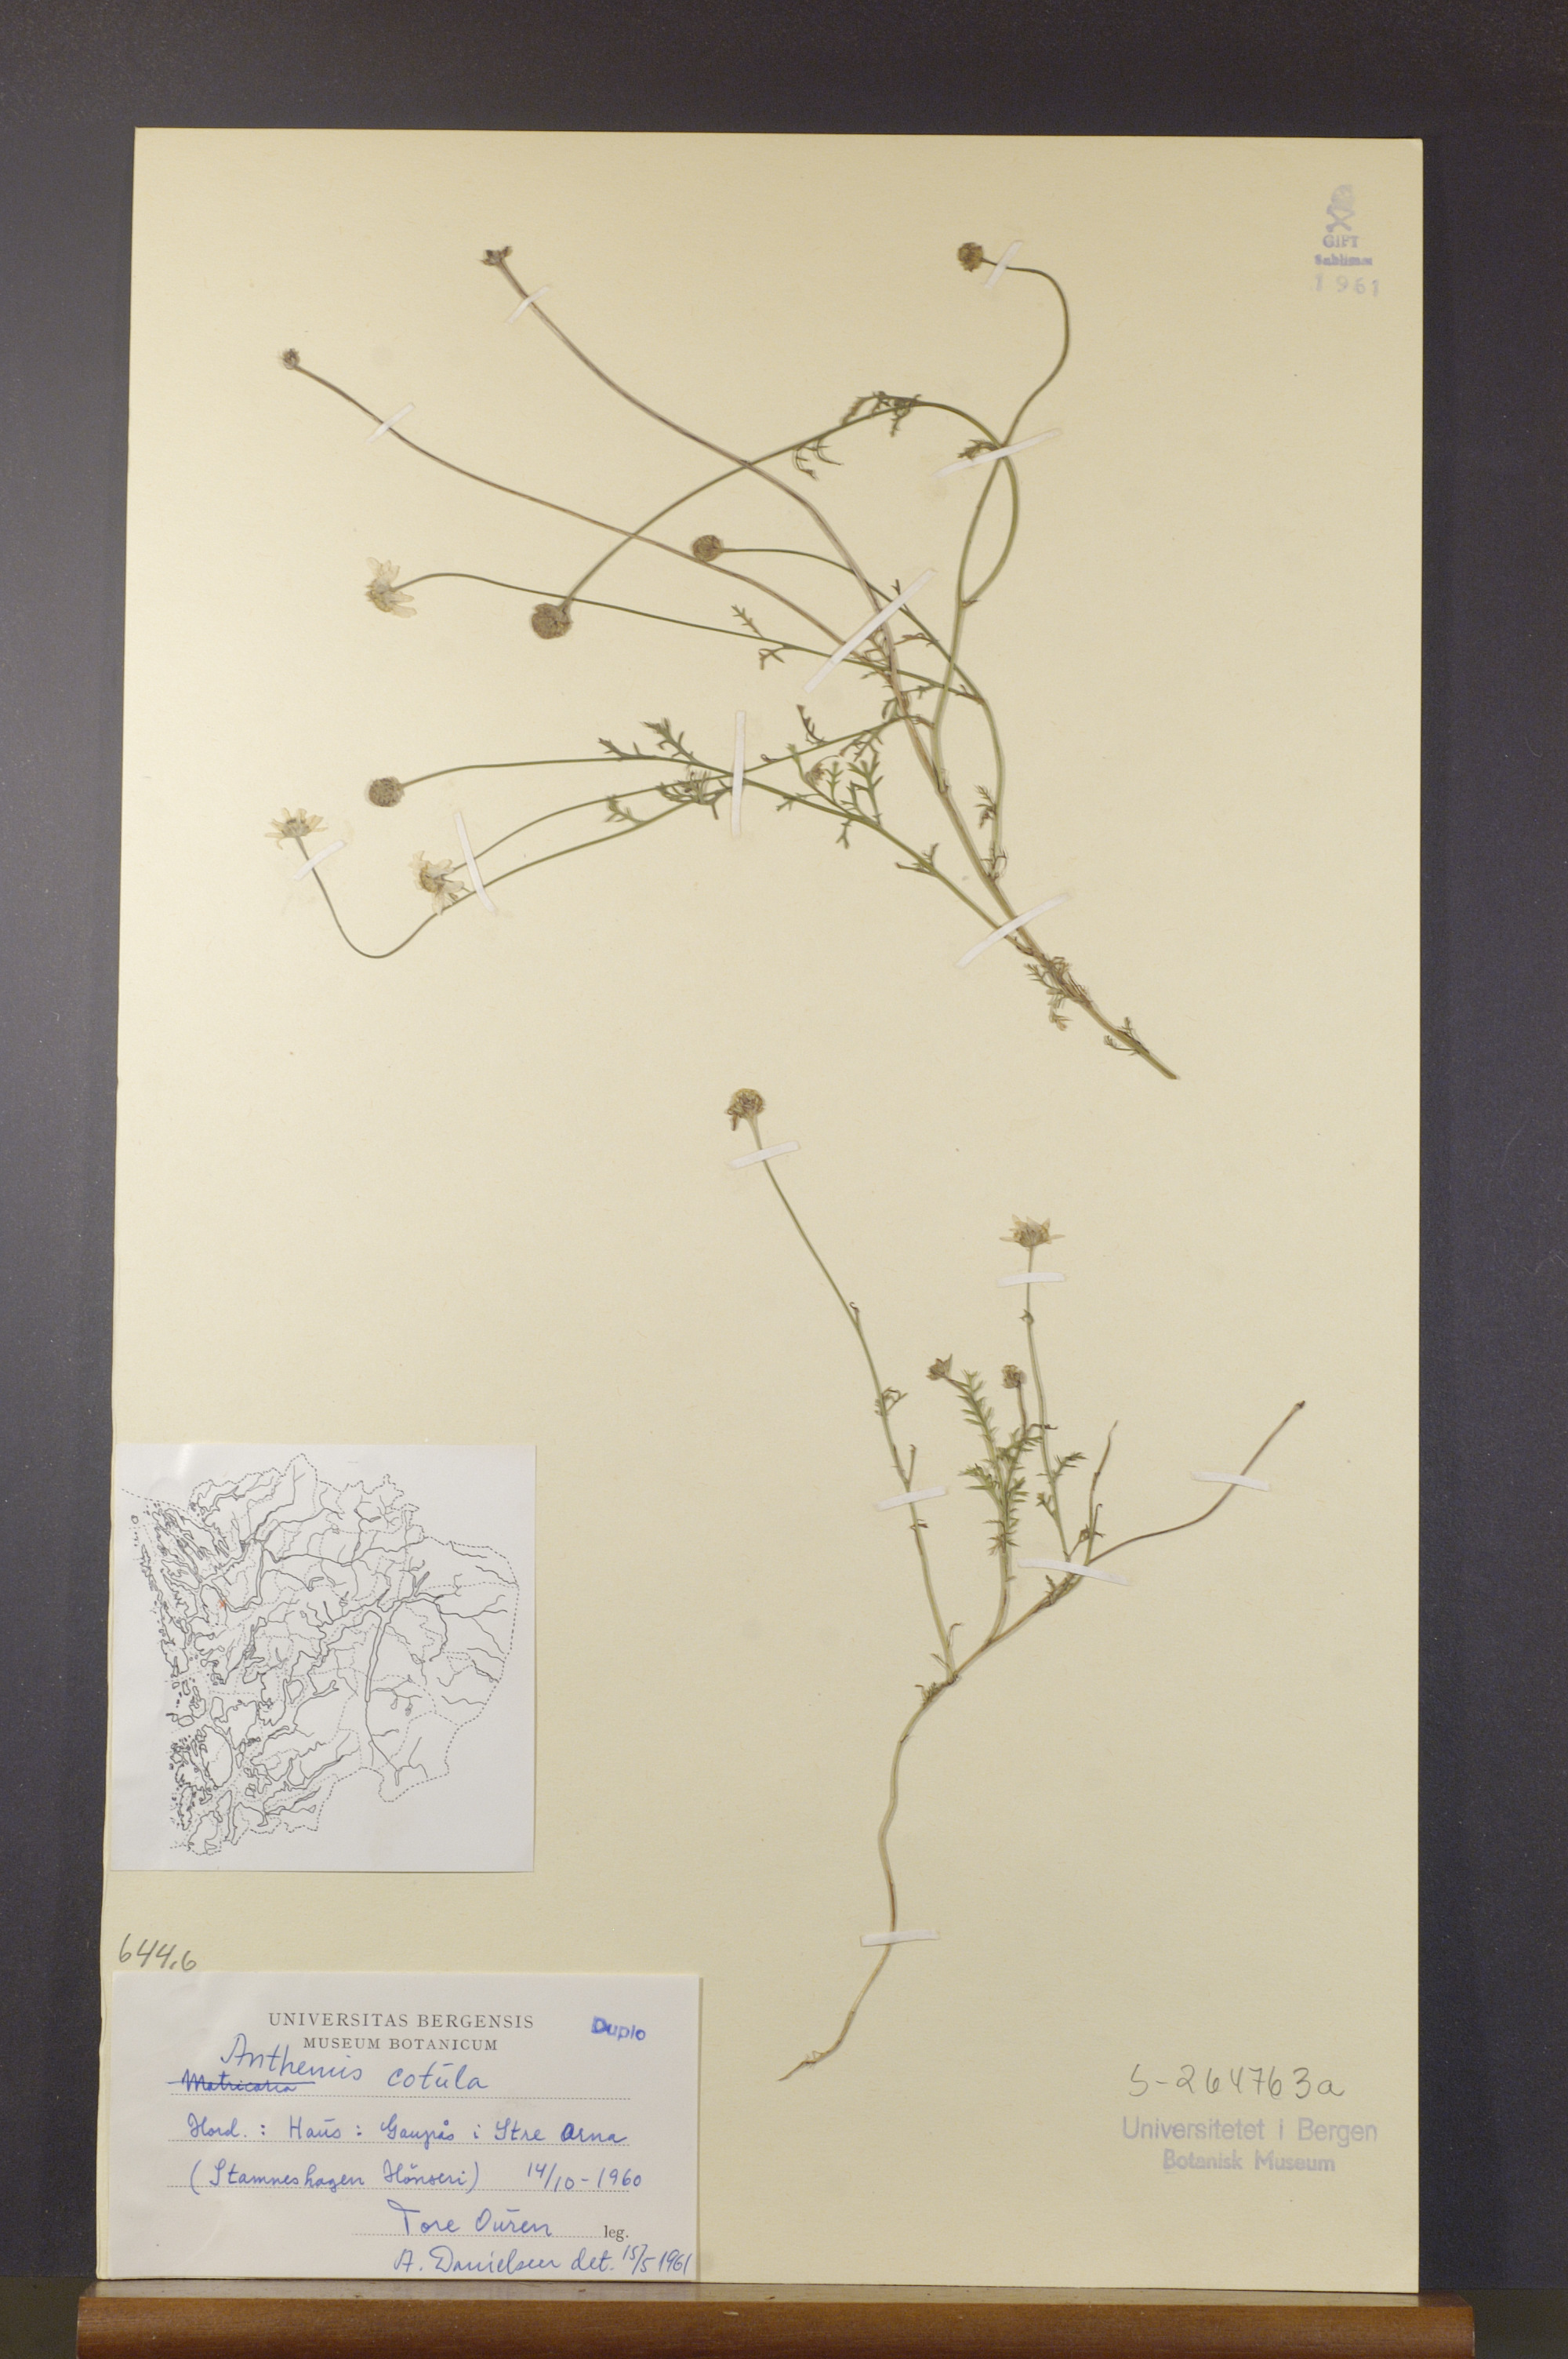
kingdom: Plantae
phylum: Tracheophyta
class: Magnoliopsida
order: Asterales
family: Asteraceae
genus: Anthemis
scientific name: Anthemis cotula
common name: Stinking chamomile
